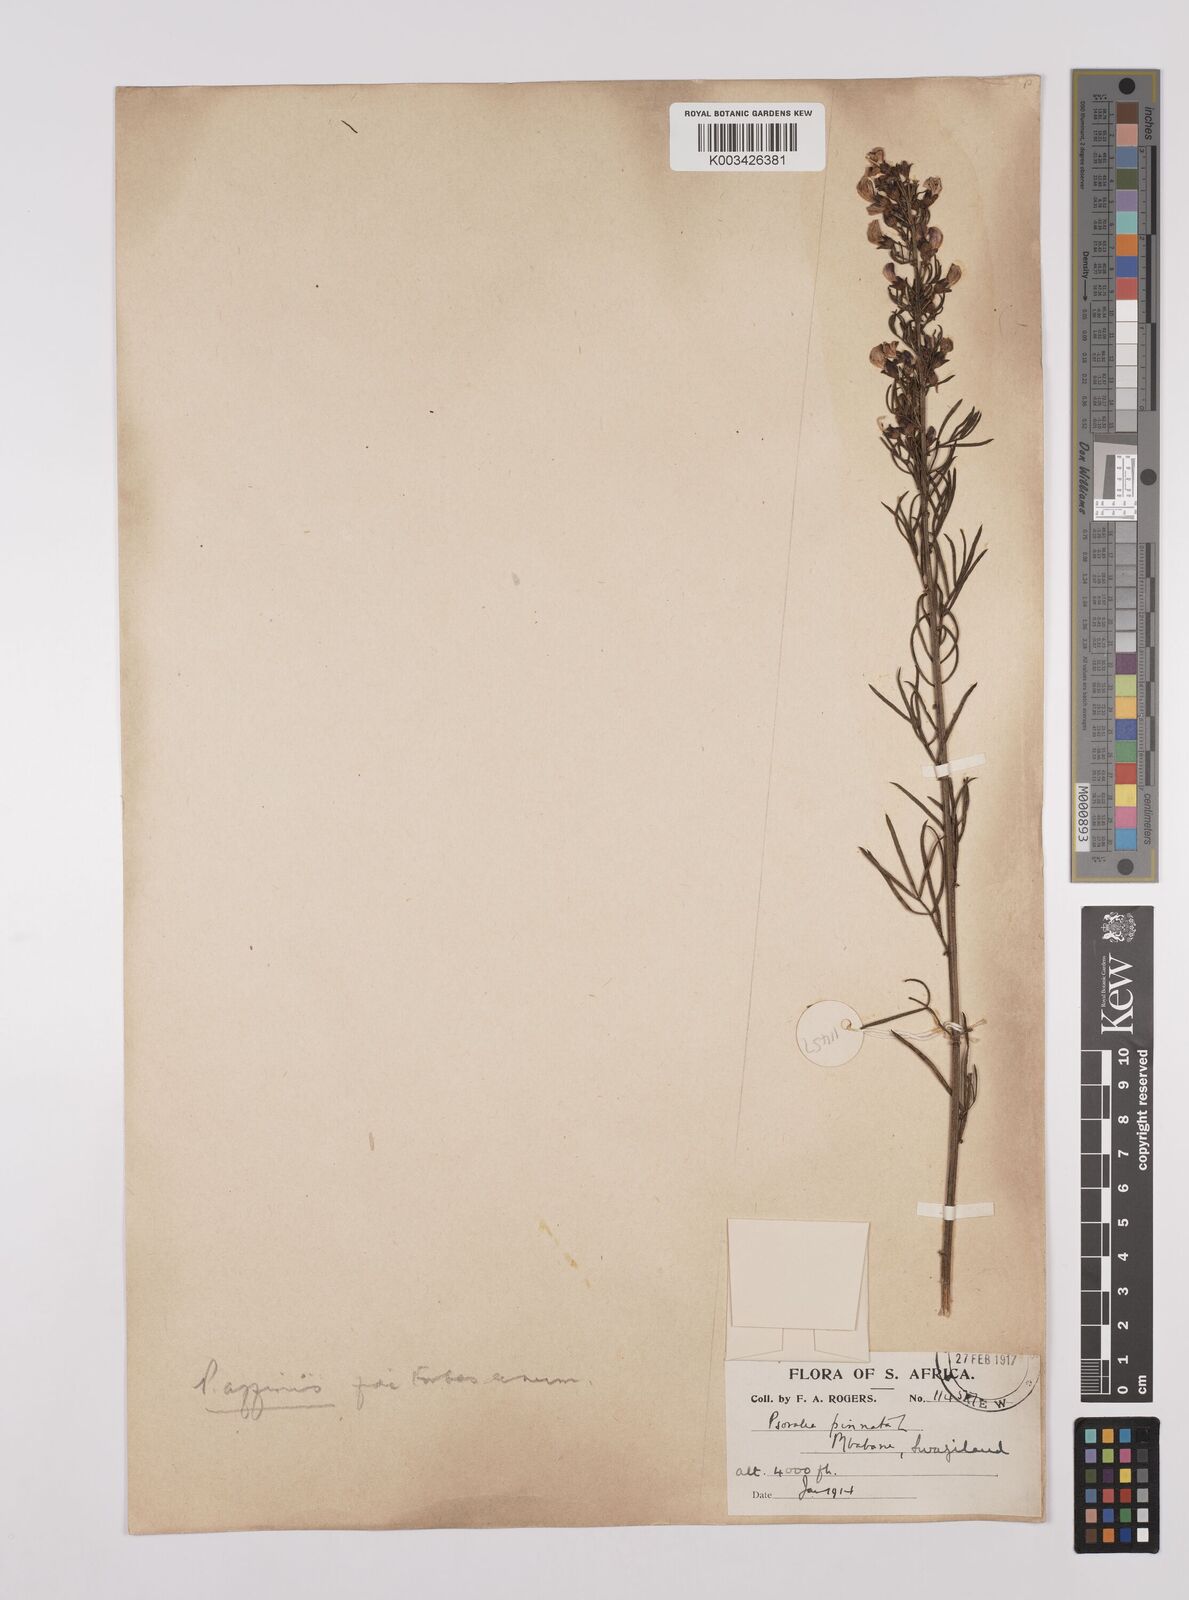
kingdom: Plantae
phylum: Tracheophyta
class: Magnoliopsida
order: Fabales
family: Fabaceae
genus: Psoralea
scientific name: Psoralea rhizotoma
